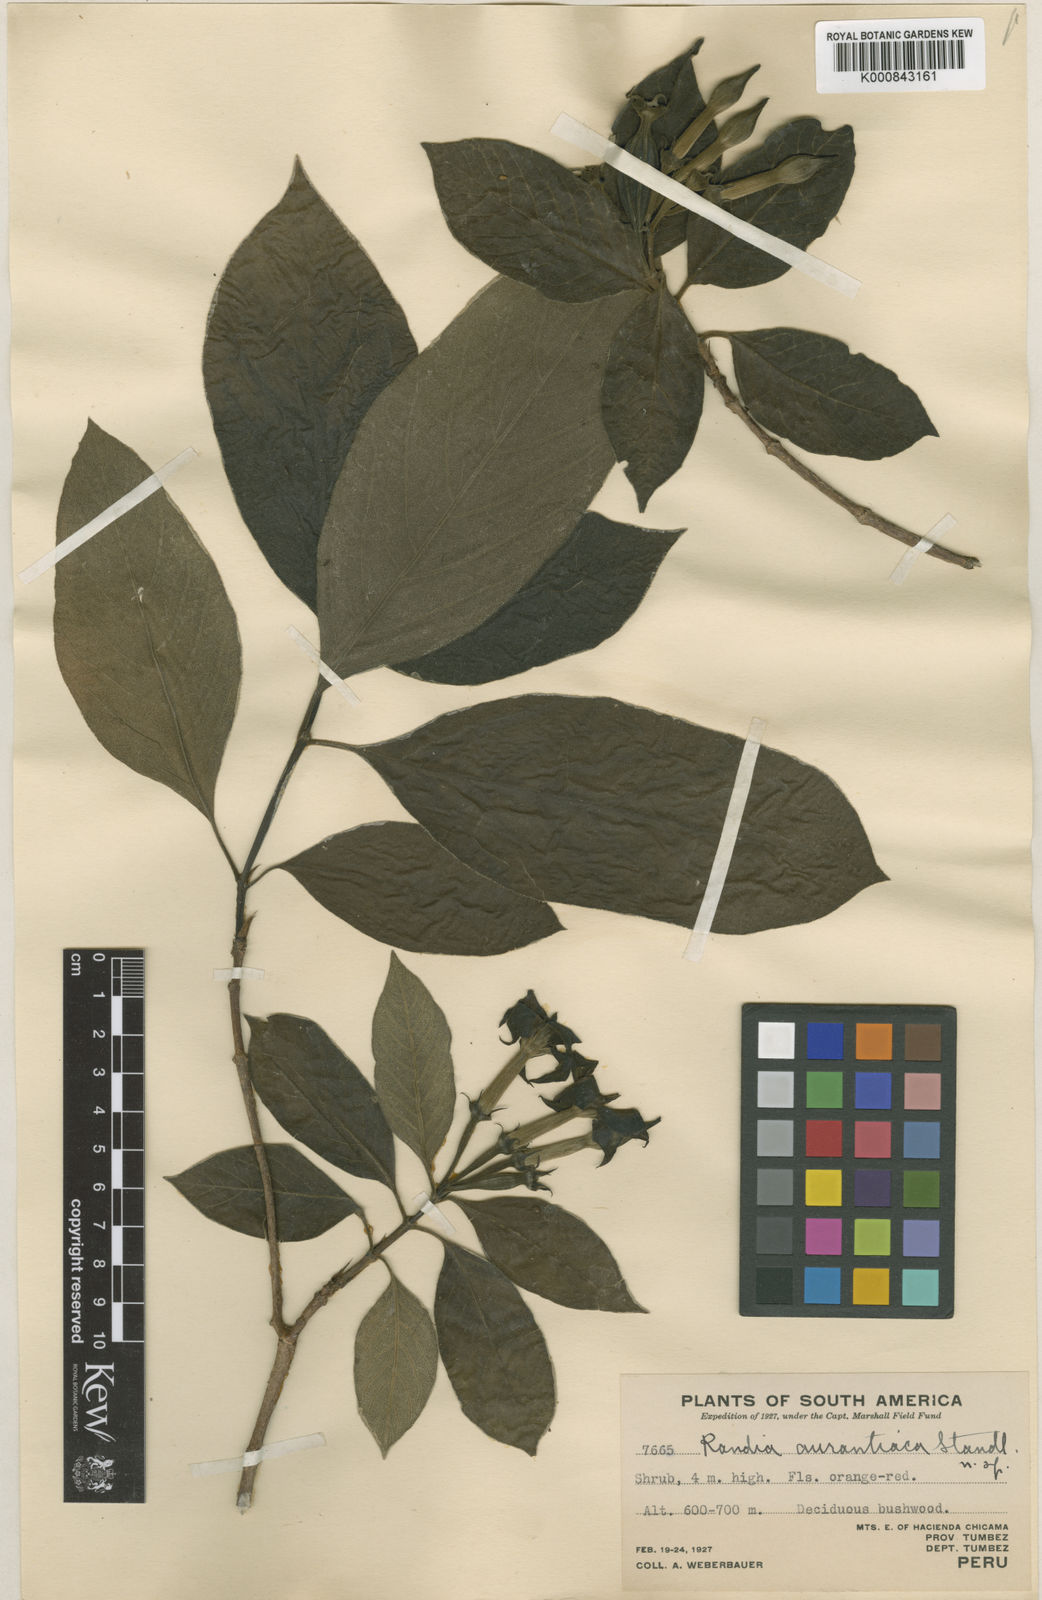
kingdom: Plantae
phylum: Tracheophyta
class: Magnoliopsida
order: Gentianales
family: Rubiaceae
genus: Sphinctanthus
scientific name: Sphinctanthus aurantiacus
